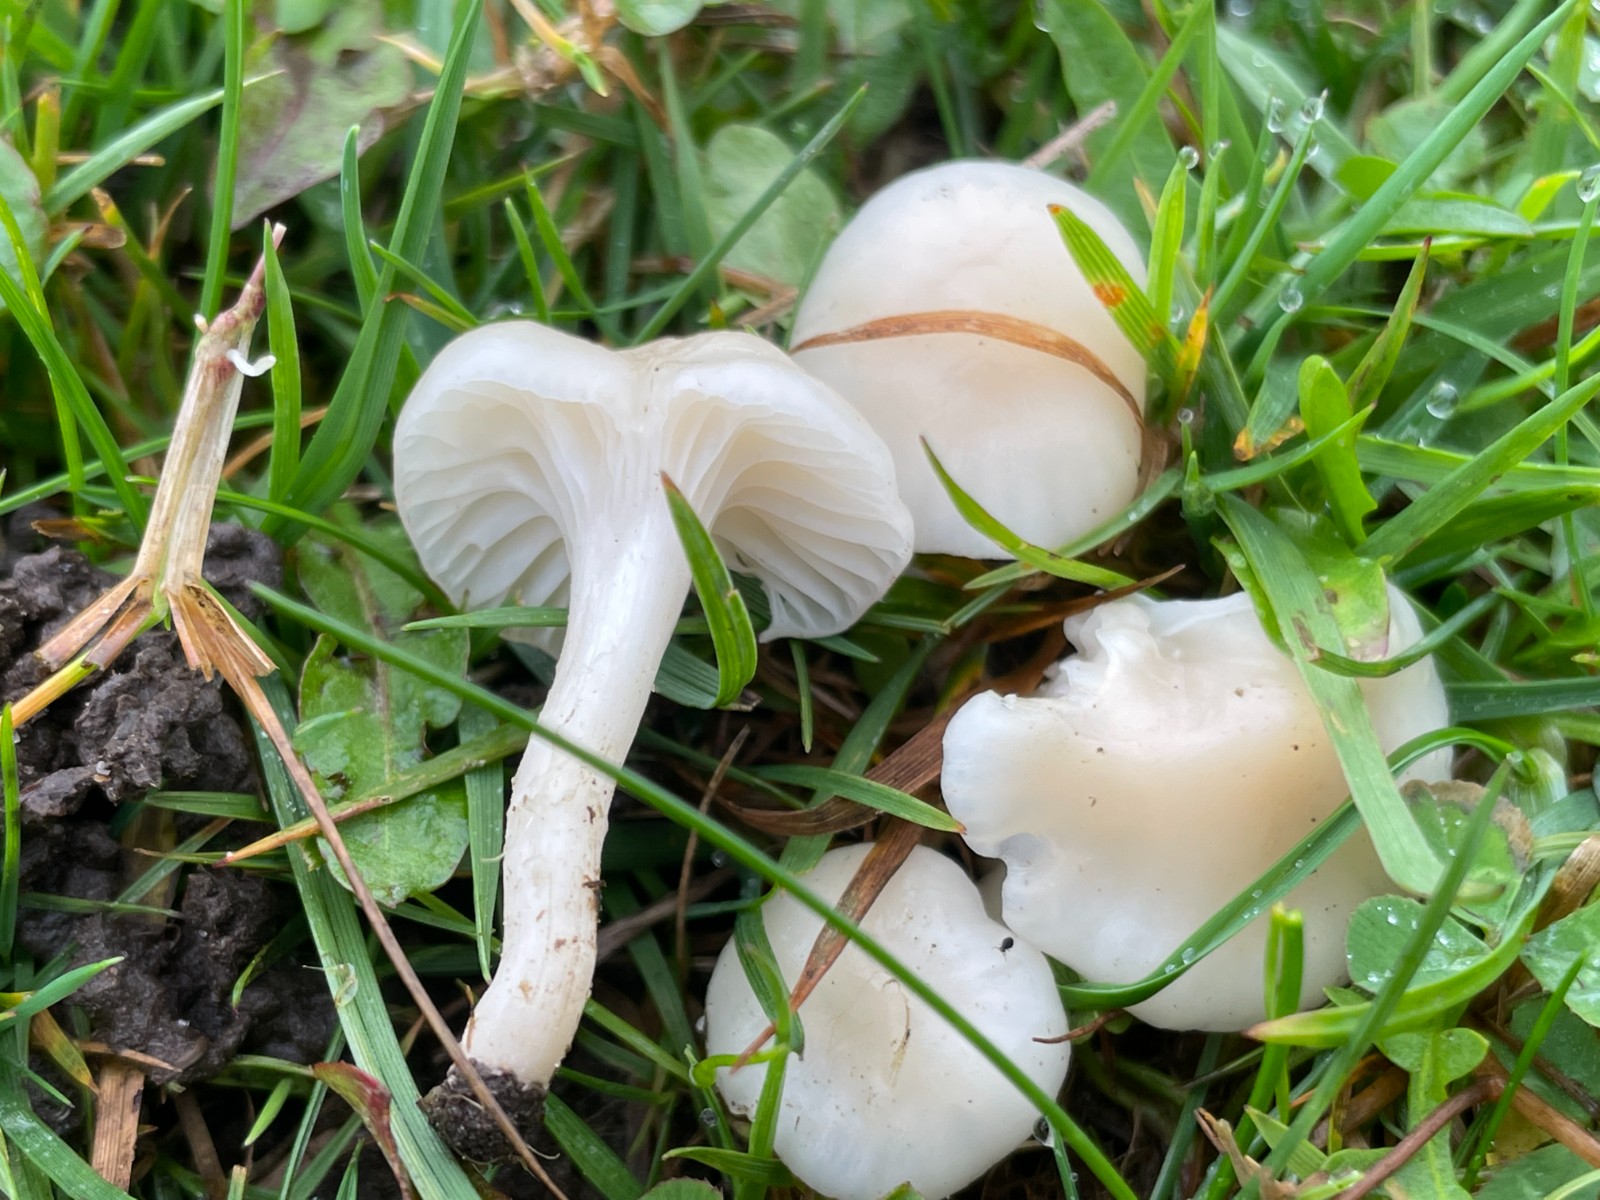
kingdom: Fungi
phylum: Basidiomycota
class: Agaricomycetes
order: Agaricales
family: Hygrophoraceae
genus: Cuphophyllus
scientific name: Cuphophyllus virgineus
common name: snehvid vokshat
